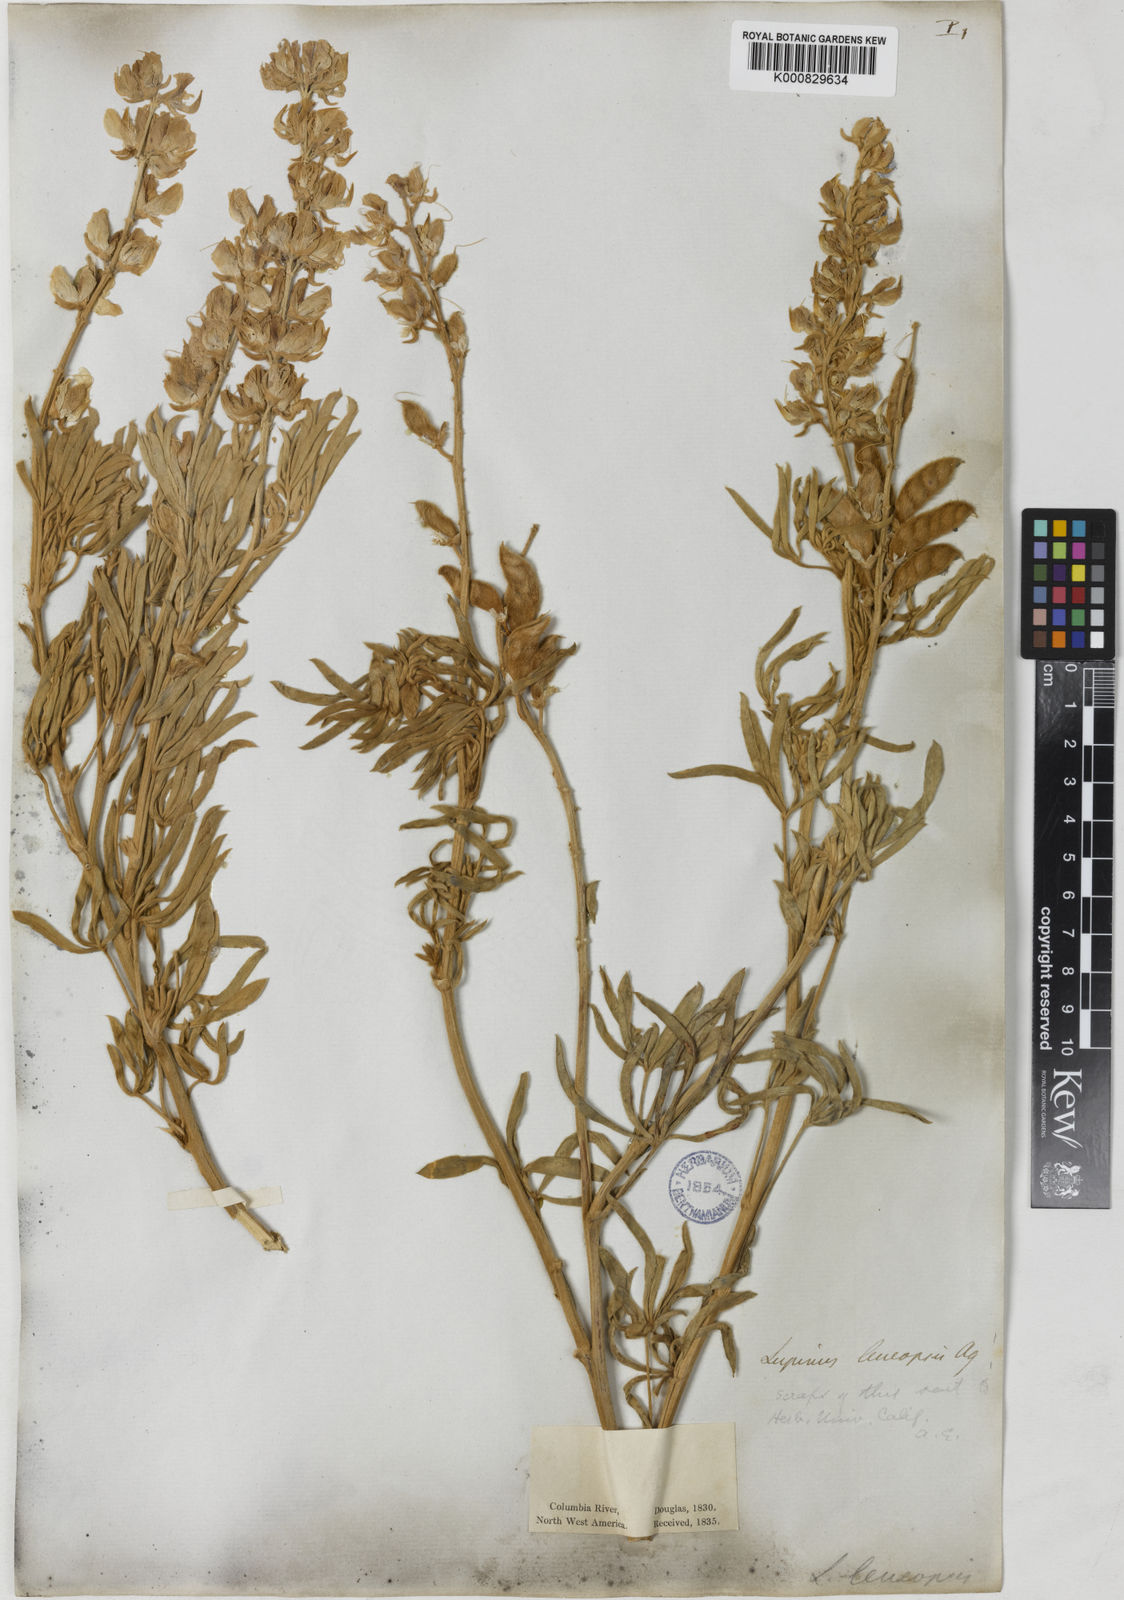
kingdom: Plantae
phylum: Tracheophyta
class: Magnoliopsida
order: Fabales
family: Fabaceae
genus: Lupinus
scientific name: Lupinus
